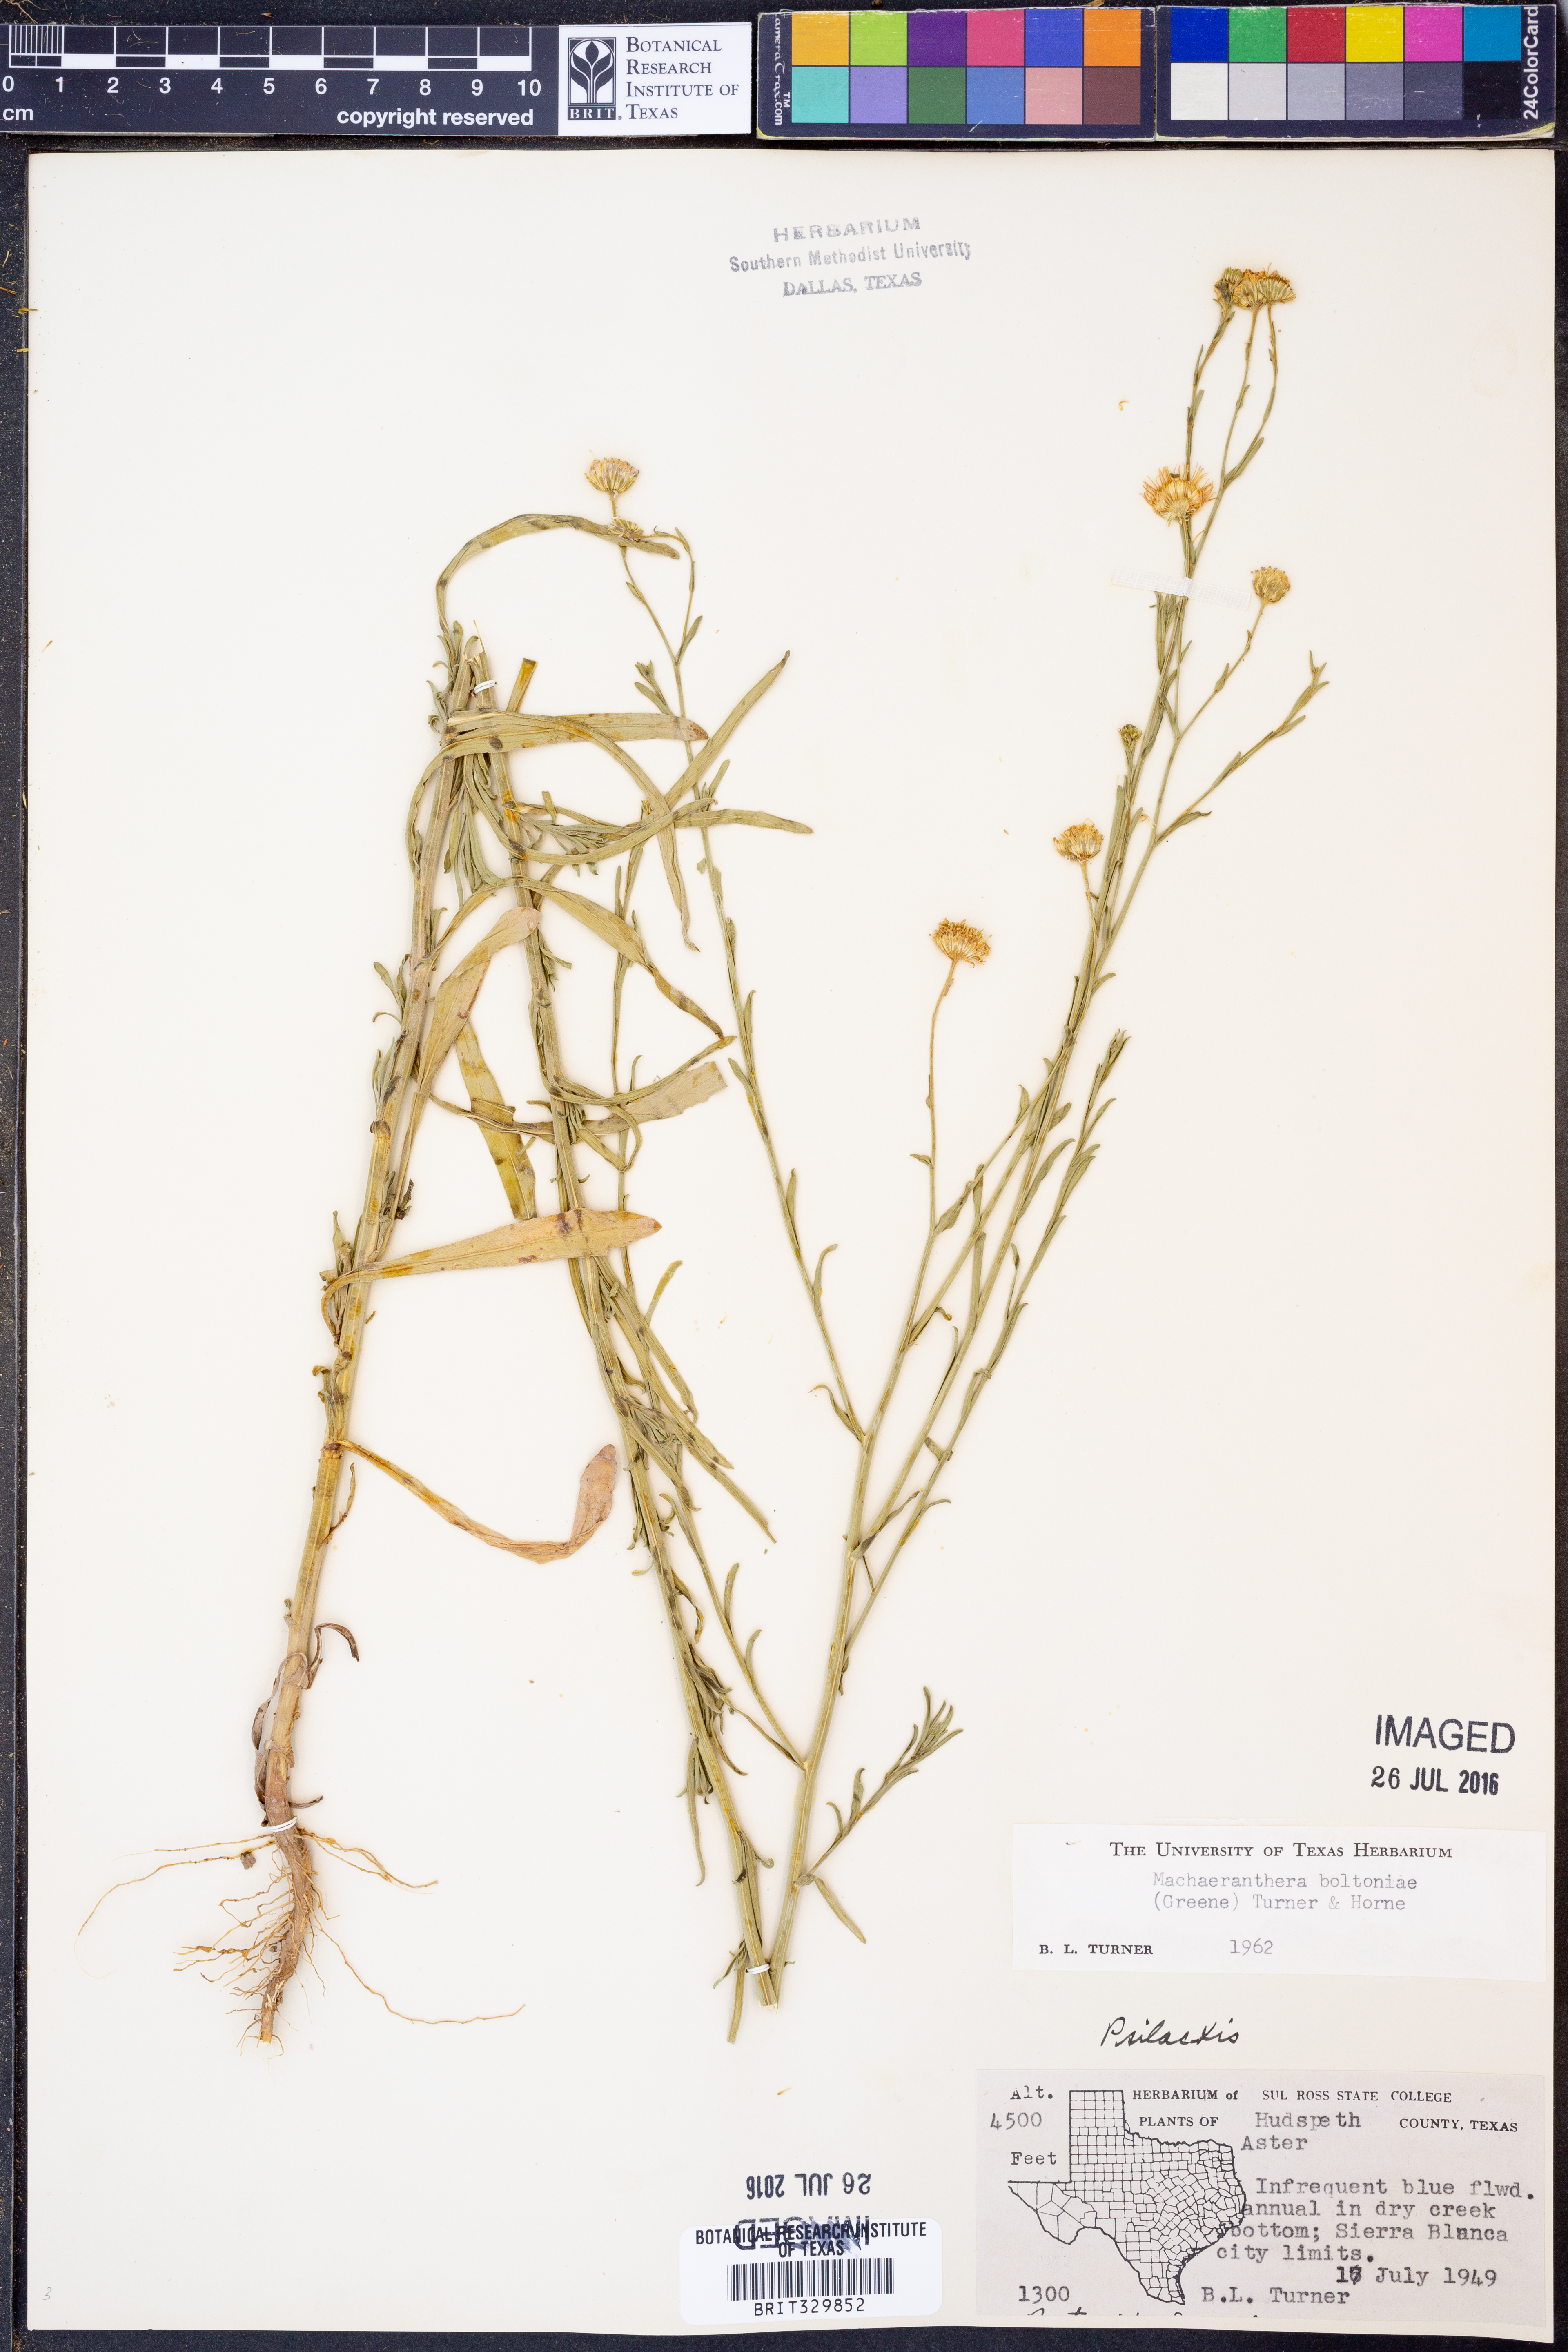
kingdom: Plantae
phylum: Tracheophyta
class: Magnoliopsida
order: Asterales
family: Asteraceae
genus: Psilactis
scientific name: Psilactis asteroides
